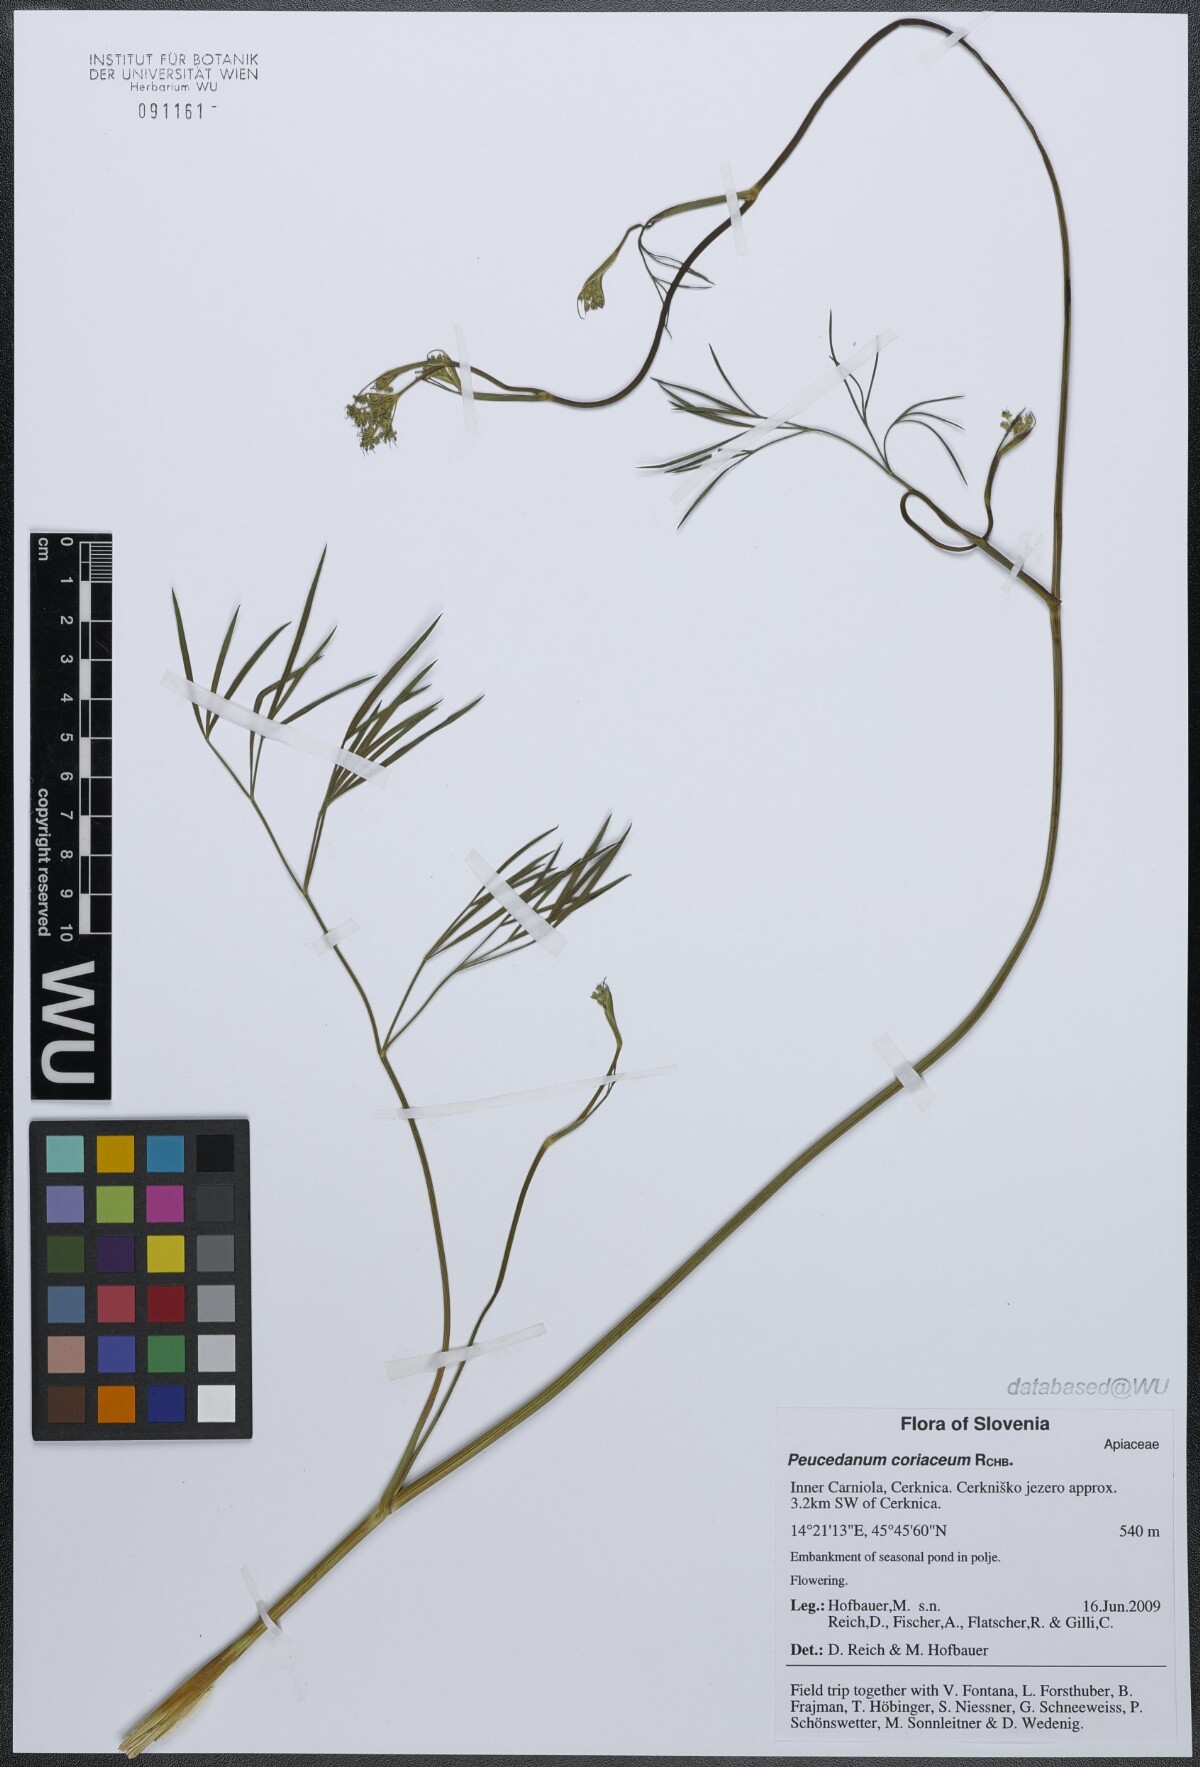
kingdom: Plantae
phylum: Tracheophyta
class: Magnoliopsida
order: Apiales
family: Apiaceae
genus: Peucedanum
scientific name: Peucedanum coriaceum
